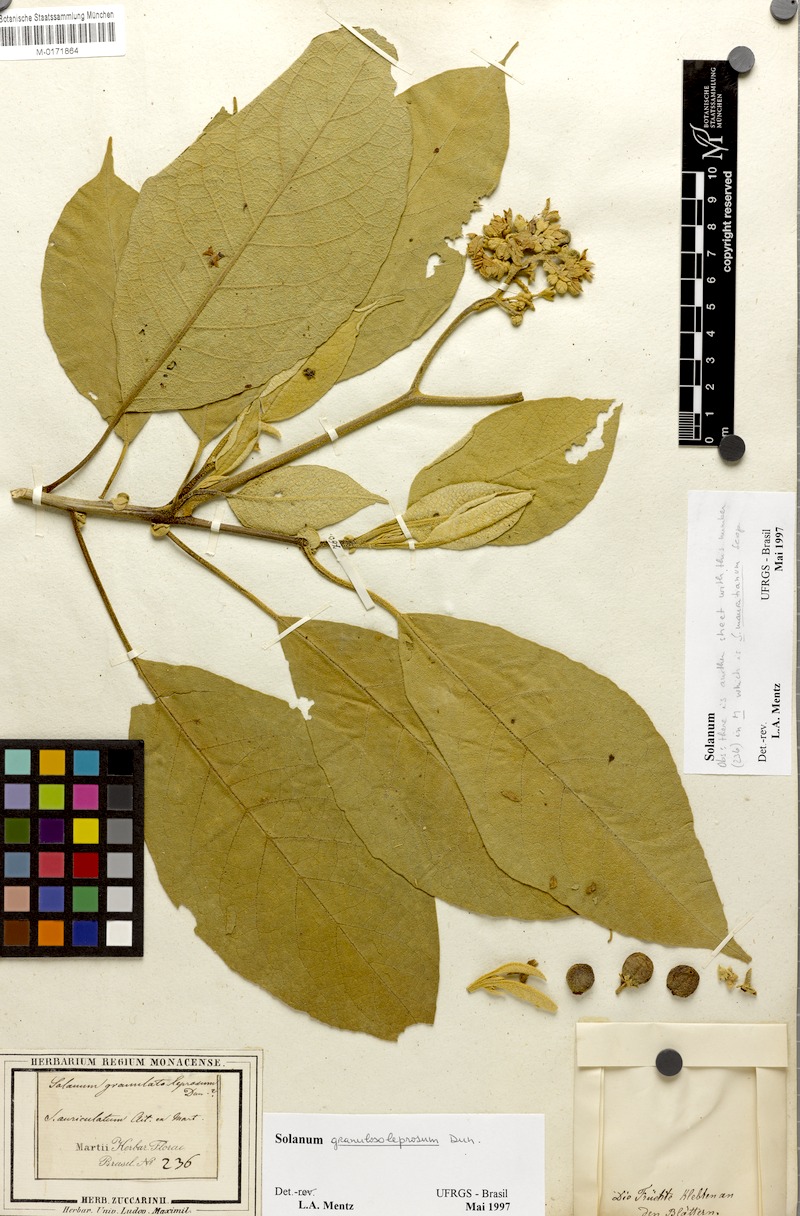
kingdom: Plantae
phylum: Tracheophyta
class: Magnoliopsida
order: Solanales
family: Solanaceae
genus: Solanum
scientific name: Solanum granulosoleprosum
